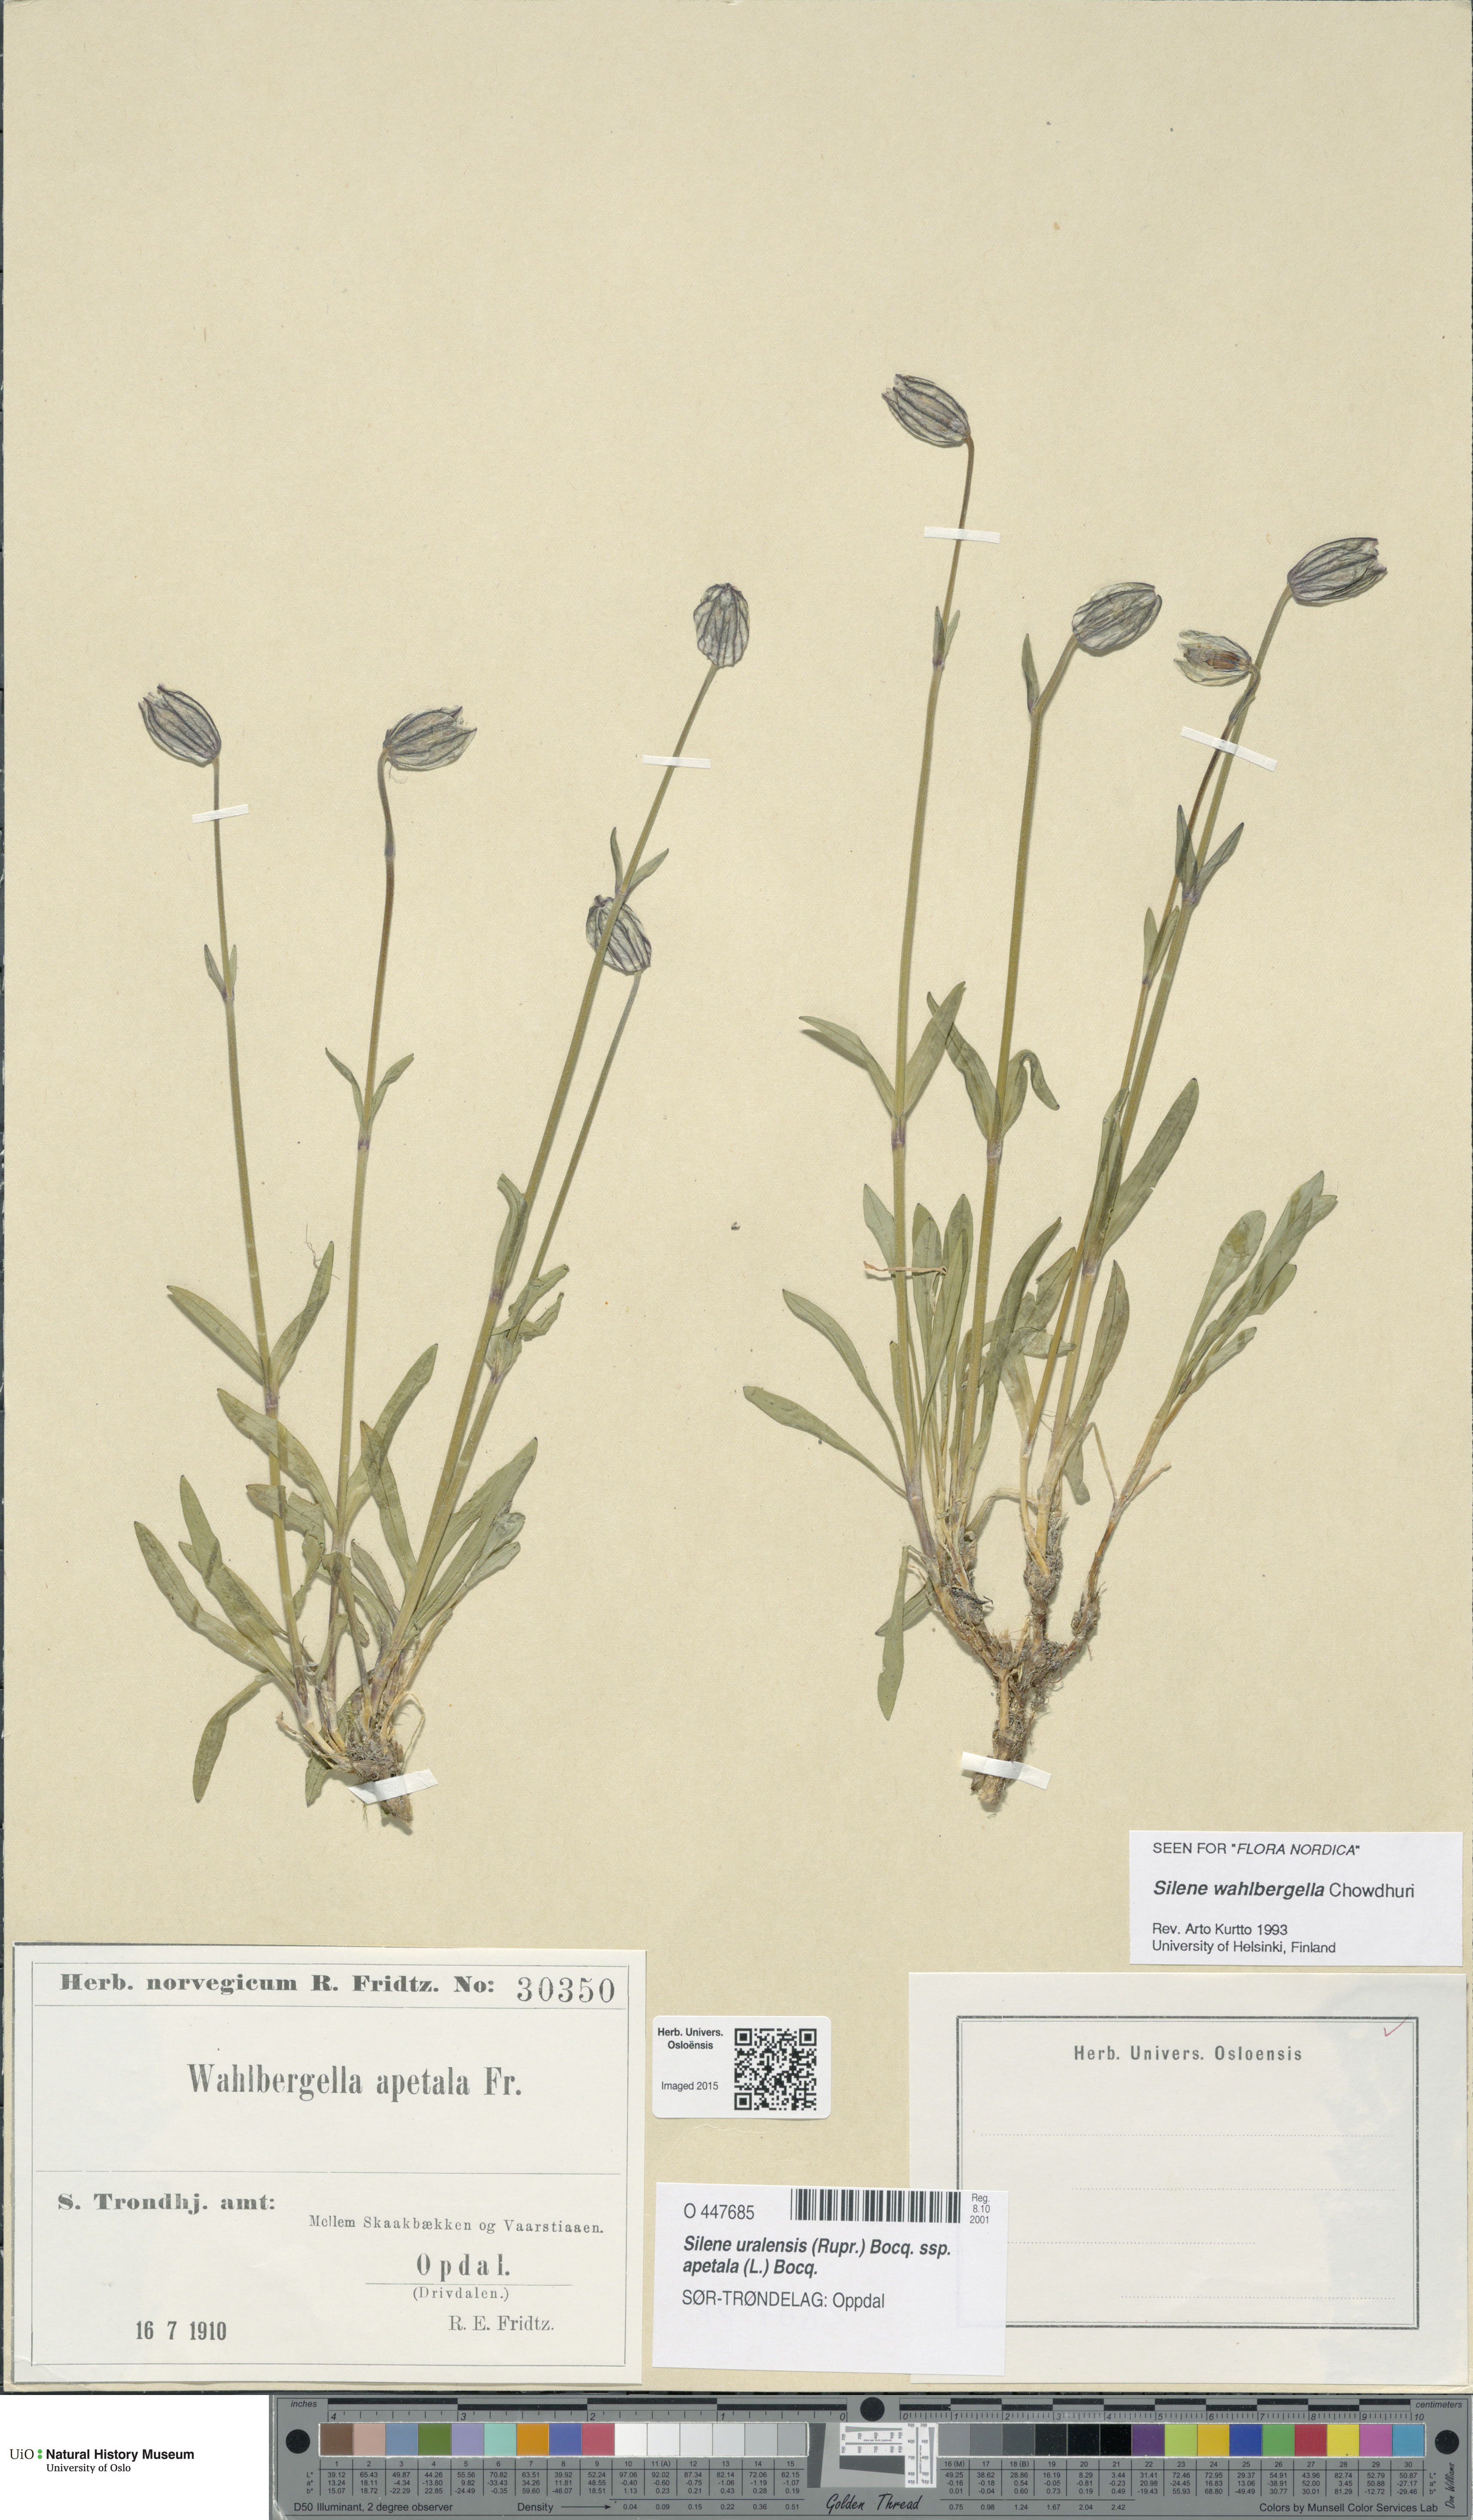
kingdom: Plantae
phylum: Tracheophyta
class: Magnoliopsida
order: Caryophyllales
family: Caryophyllaceae
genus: Silene
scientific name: Silene wahlbergella
